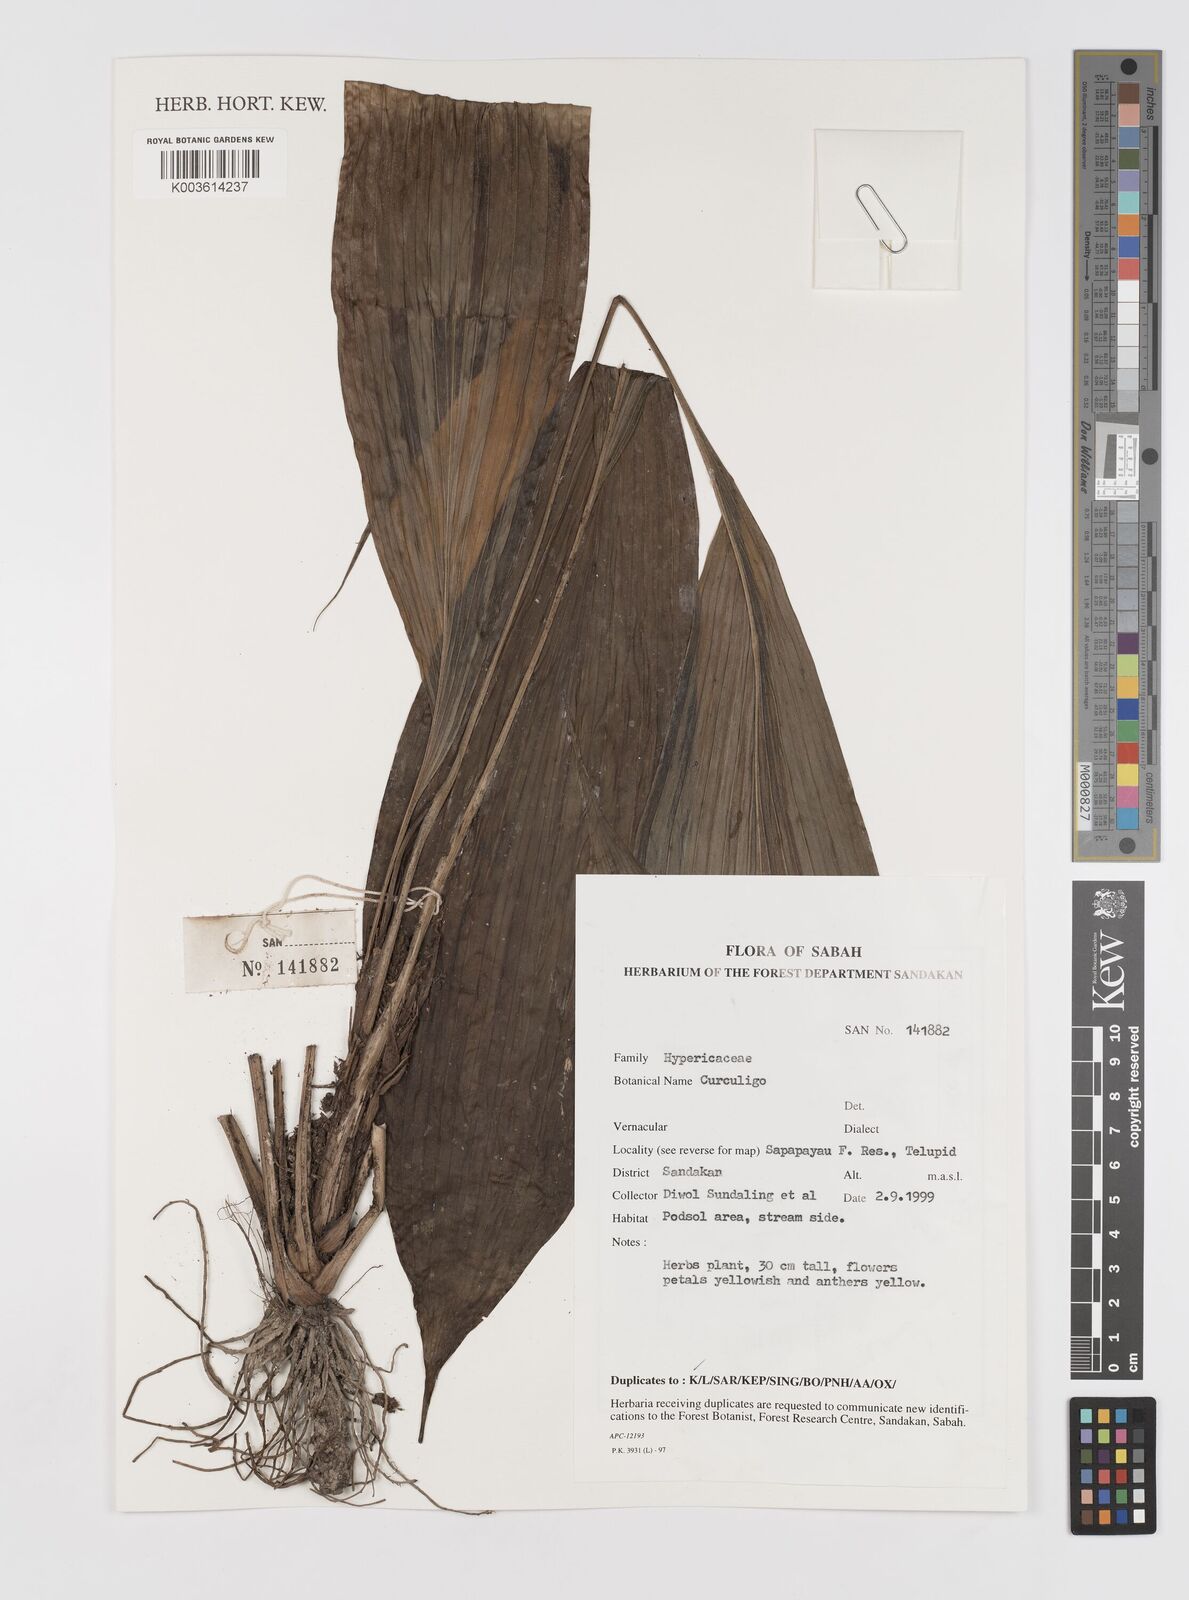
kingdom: Plantae
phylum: Tracheophyta
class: Liliopsida
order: Asparagales
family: Hypoxidaceae
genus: Curculigo
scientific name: Curculigo
